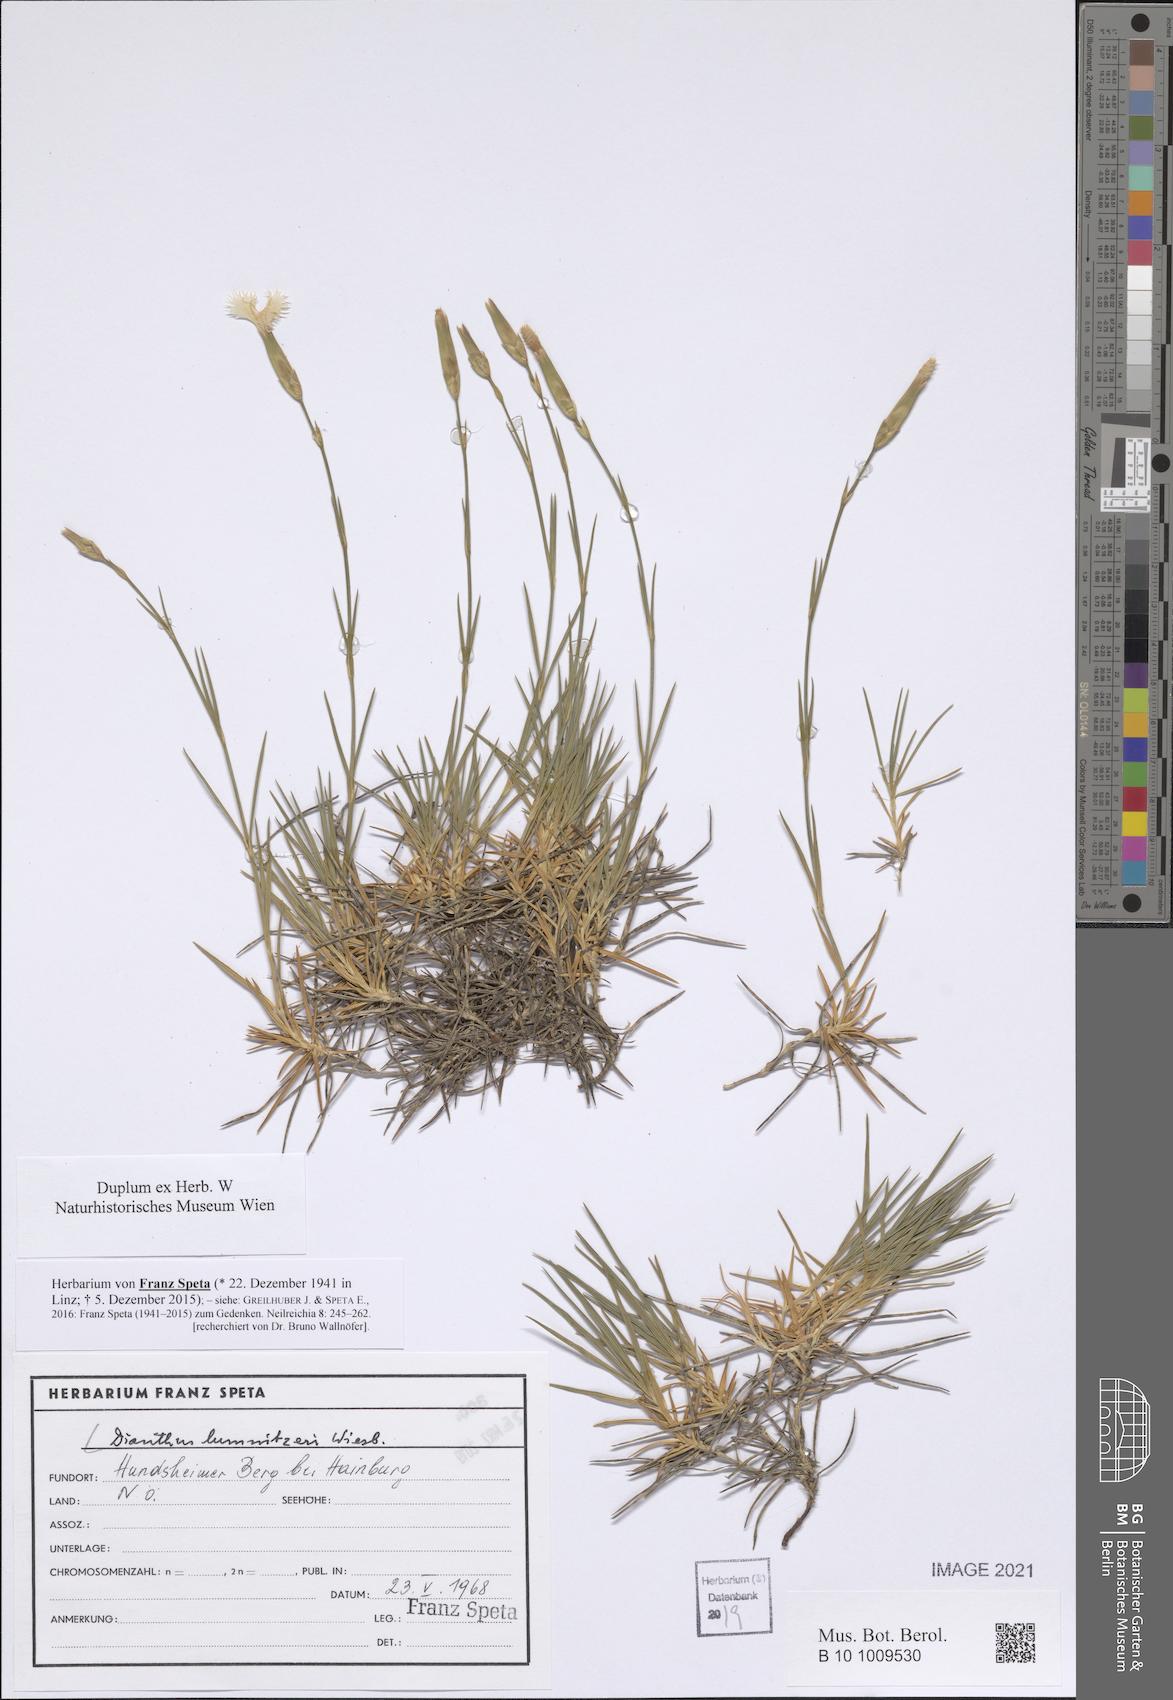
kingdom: Plantae
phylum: Tracheophyta
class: Magnoliopsida
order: Caryophyllales
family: Caryophyllaceae
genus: Dianthus
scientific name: Dianthus praecox
